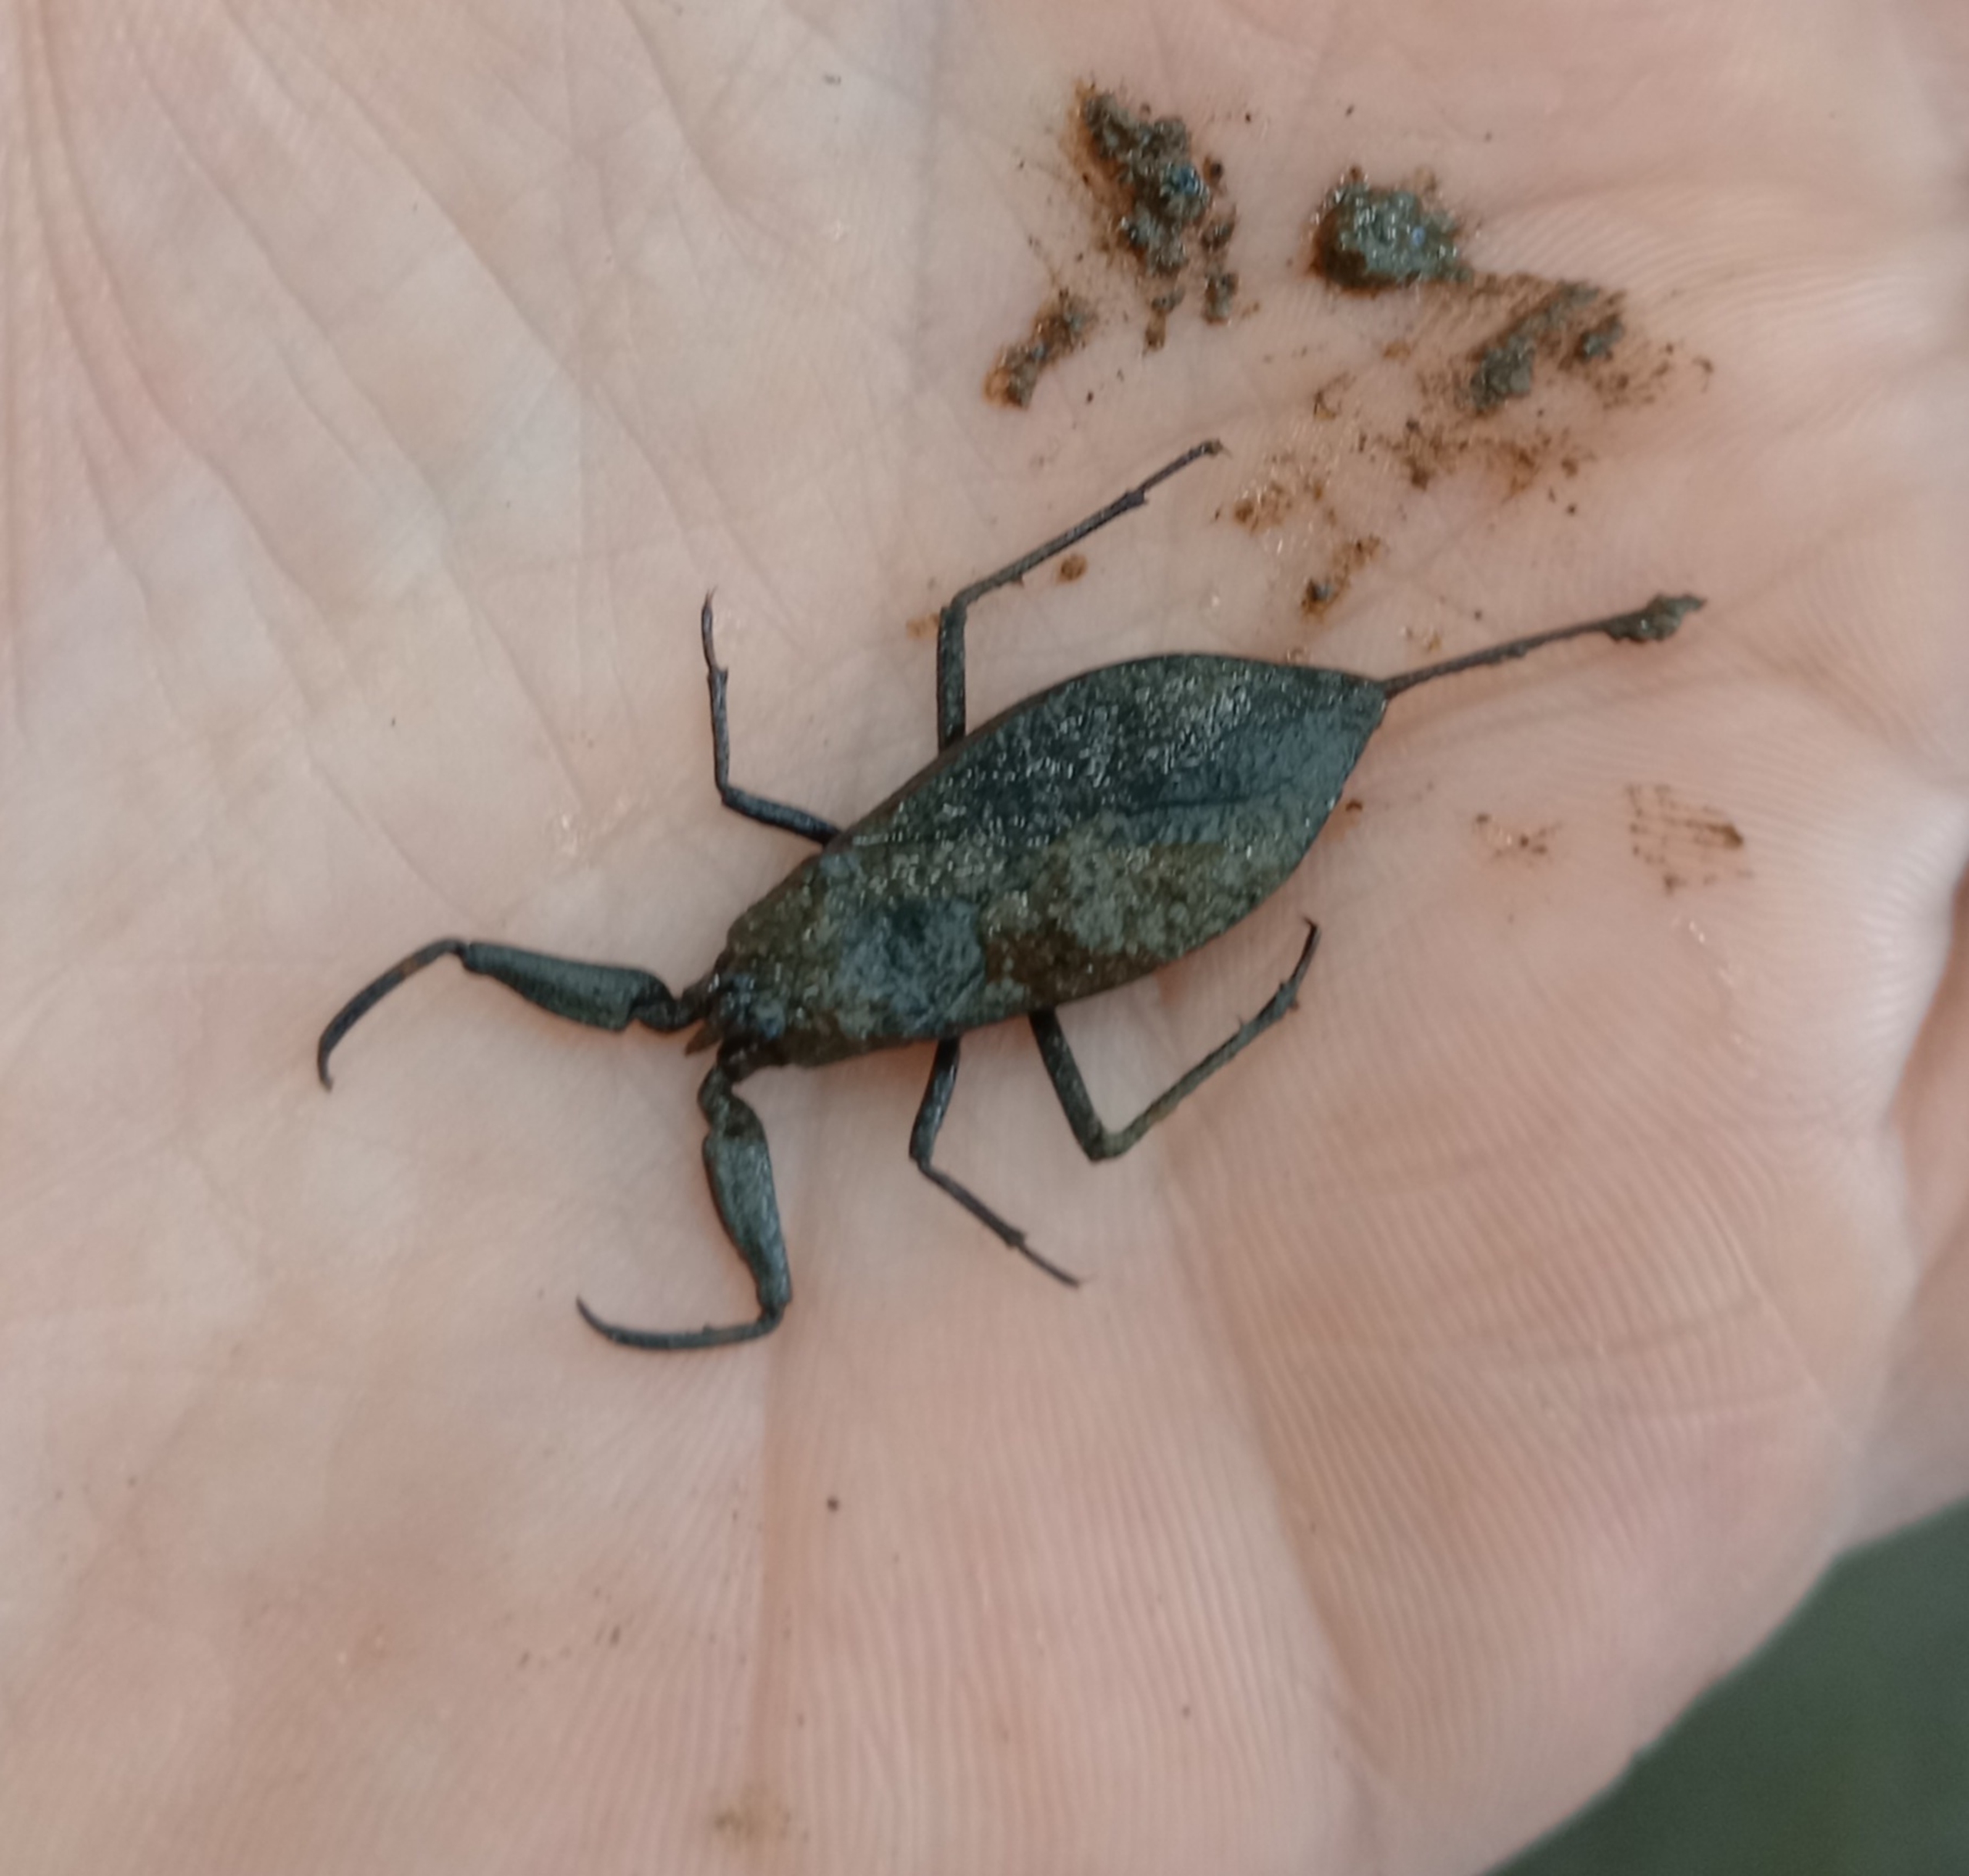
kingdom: Animalia
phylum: Arthropoda
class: Insecta
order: Hemiptera
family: Nepidae
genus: Nepa
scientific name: Nepa cinerea
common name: Skorpiontæge
